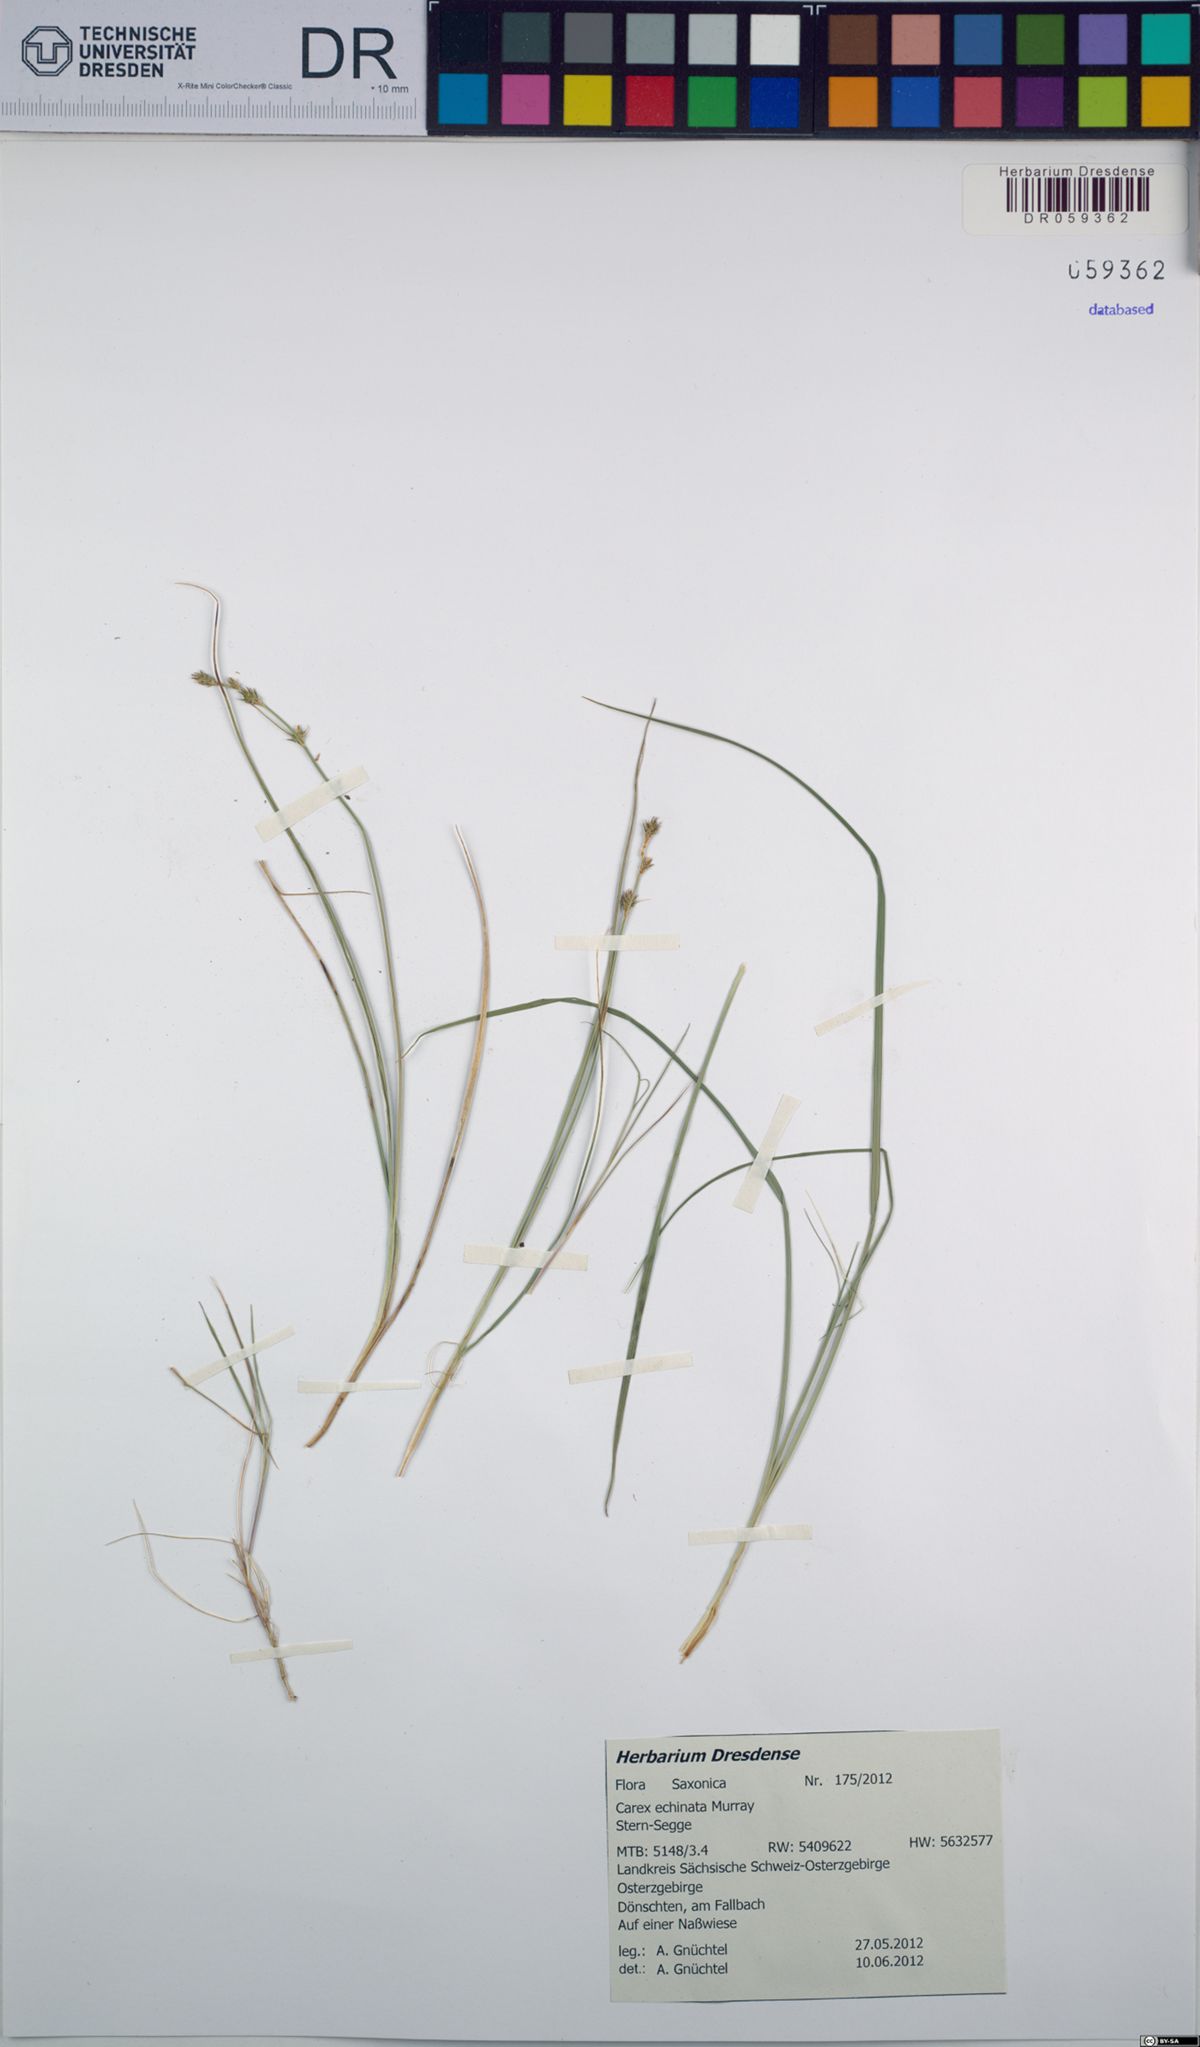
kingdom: Plantae
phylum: Tracheophyta
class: Liliopsida
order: Poales
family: Cyperaceae
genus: Carex
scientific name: Carex echinata
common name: Star sedge
